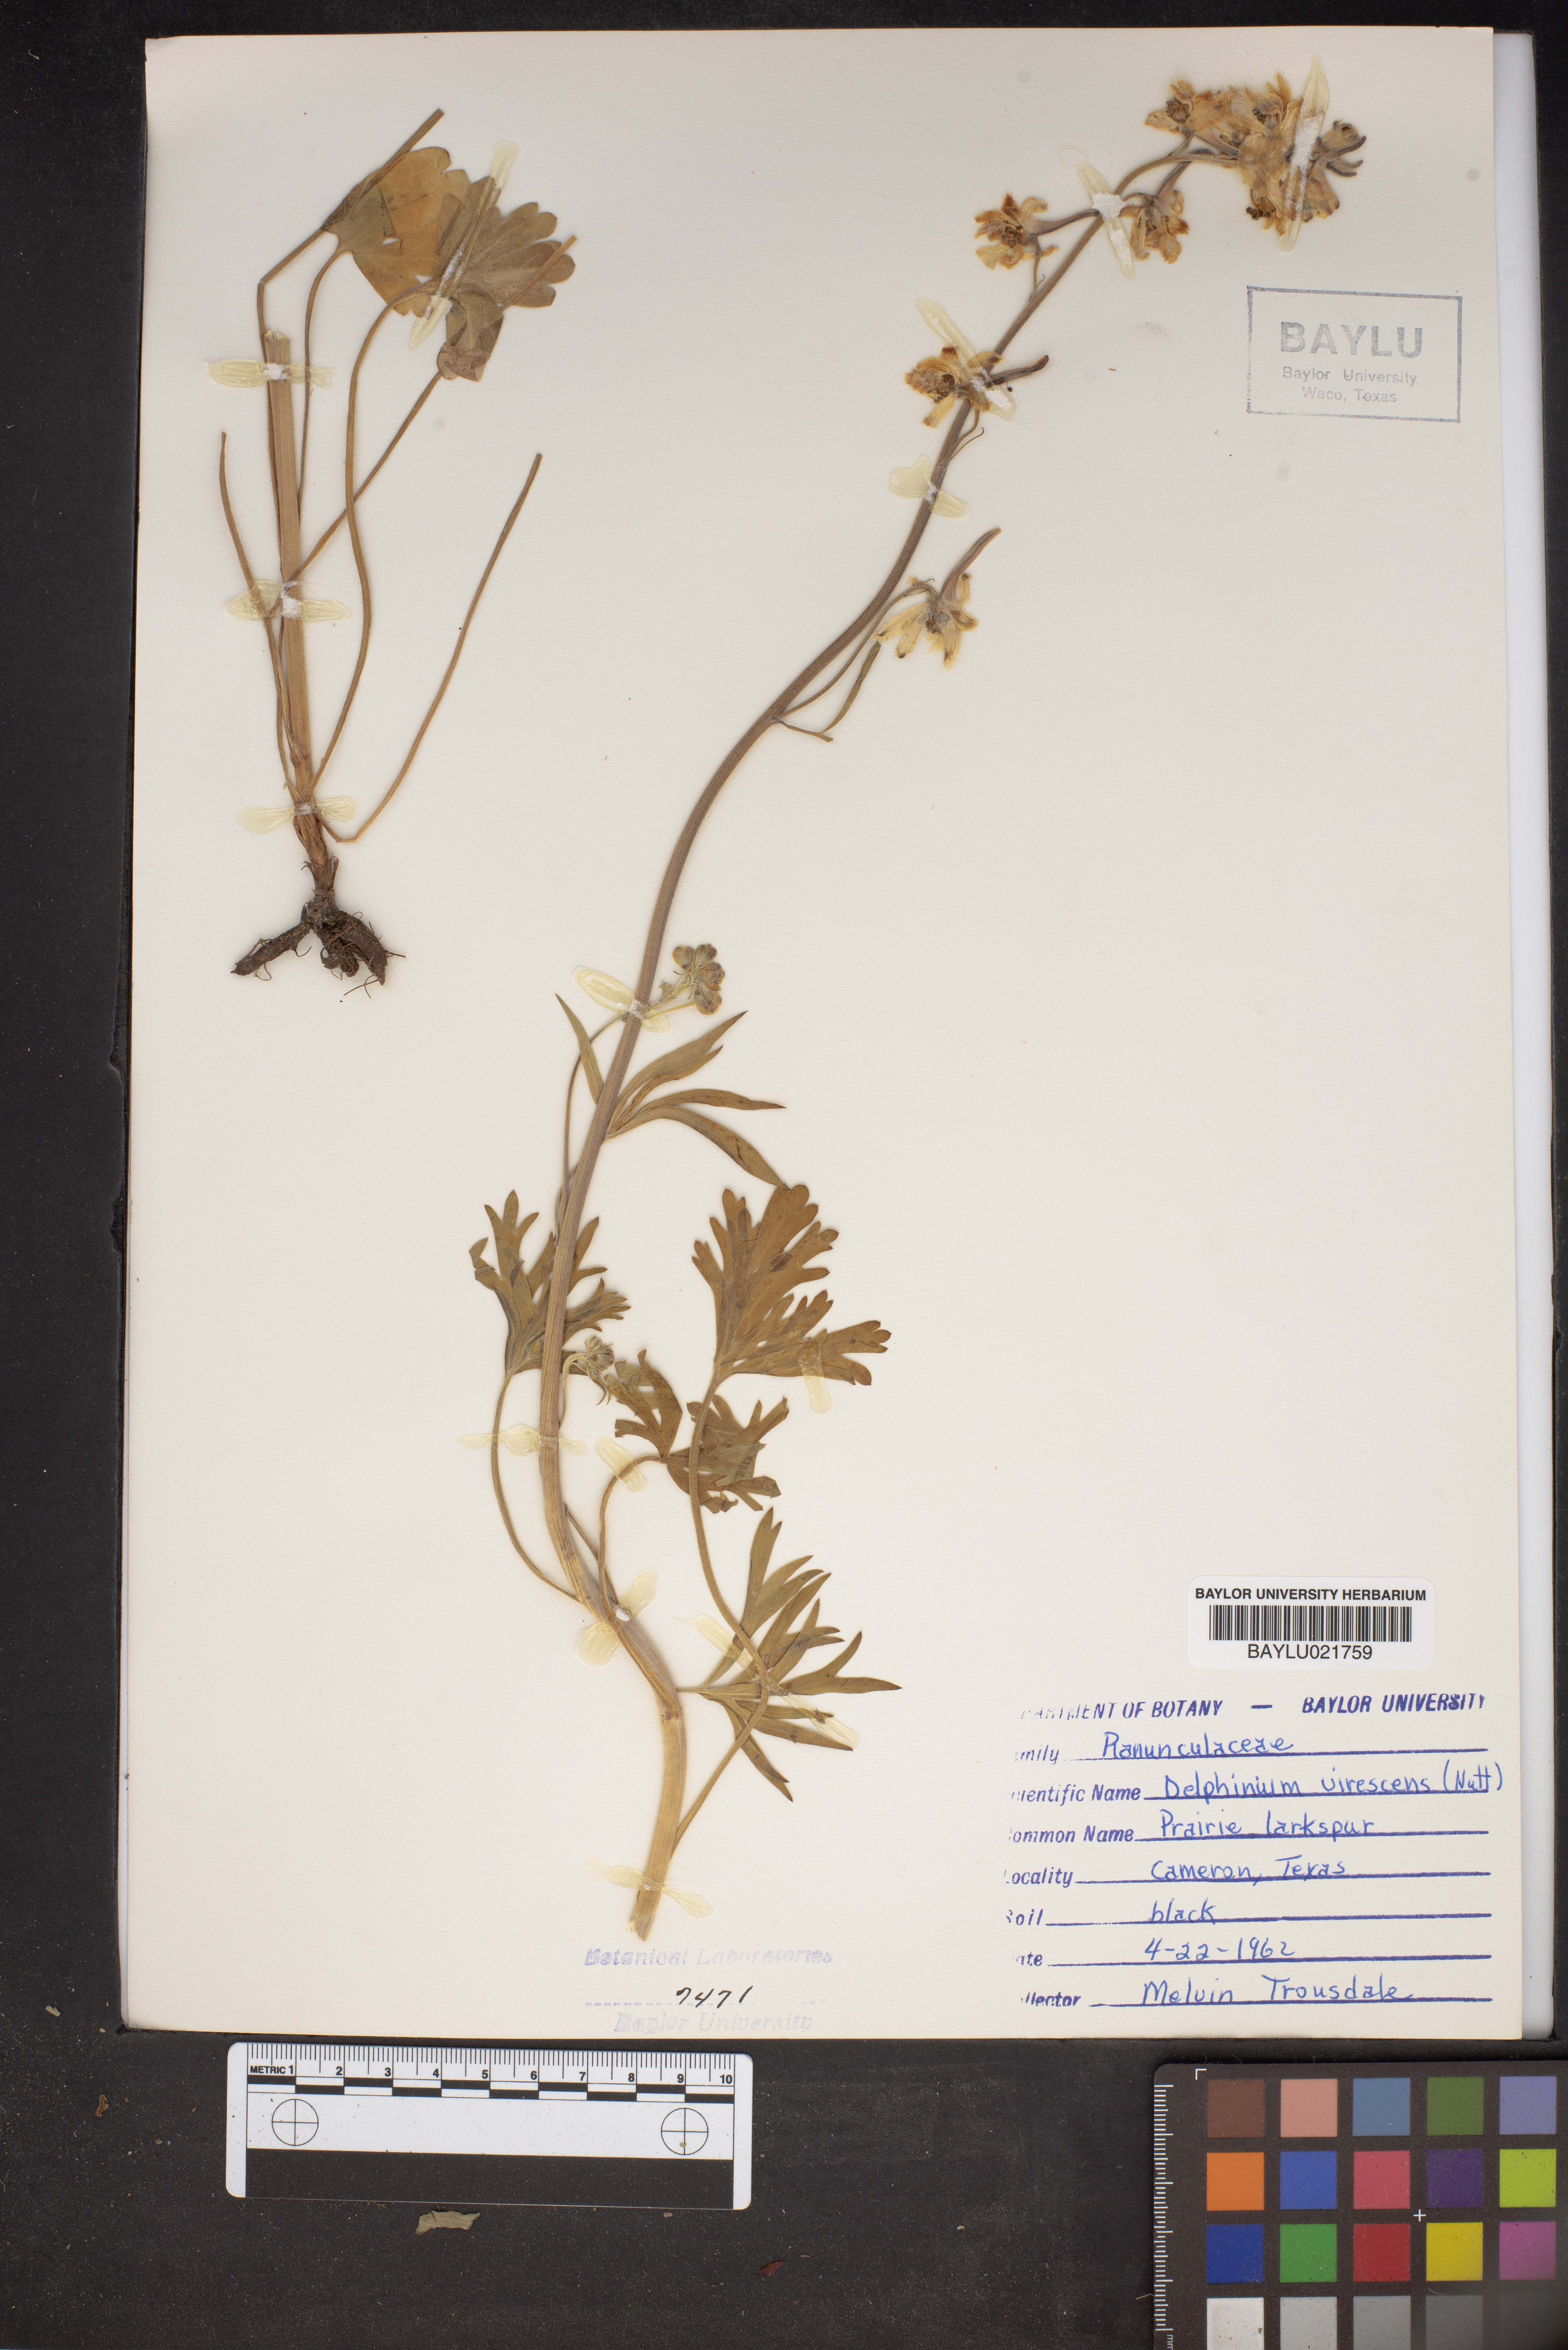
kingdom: Plantae
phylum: Tracheophyta
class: Magnoliopsida
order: Ranunculales
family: Ranunculaceae
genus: Delphinium
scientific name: Delphinium carolinianum
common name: Carolina larkspur
